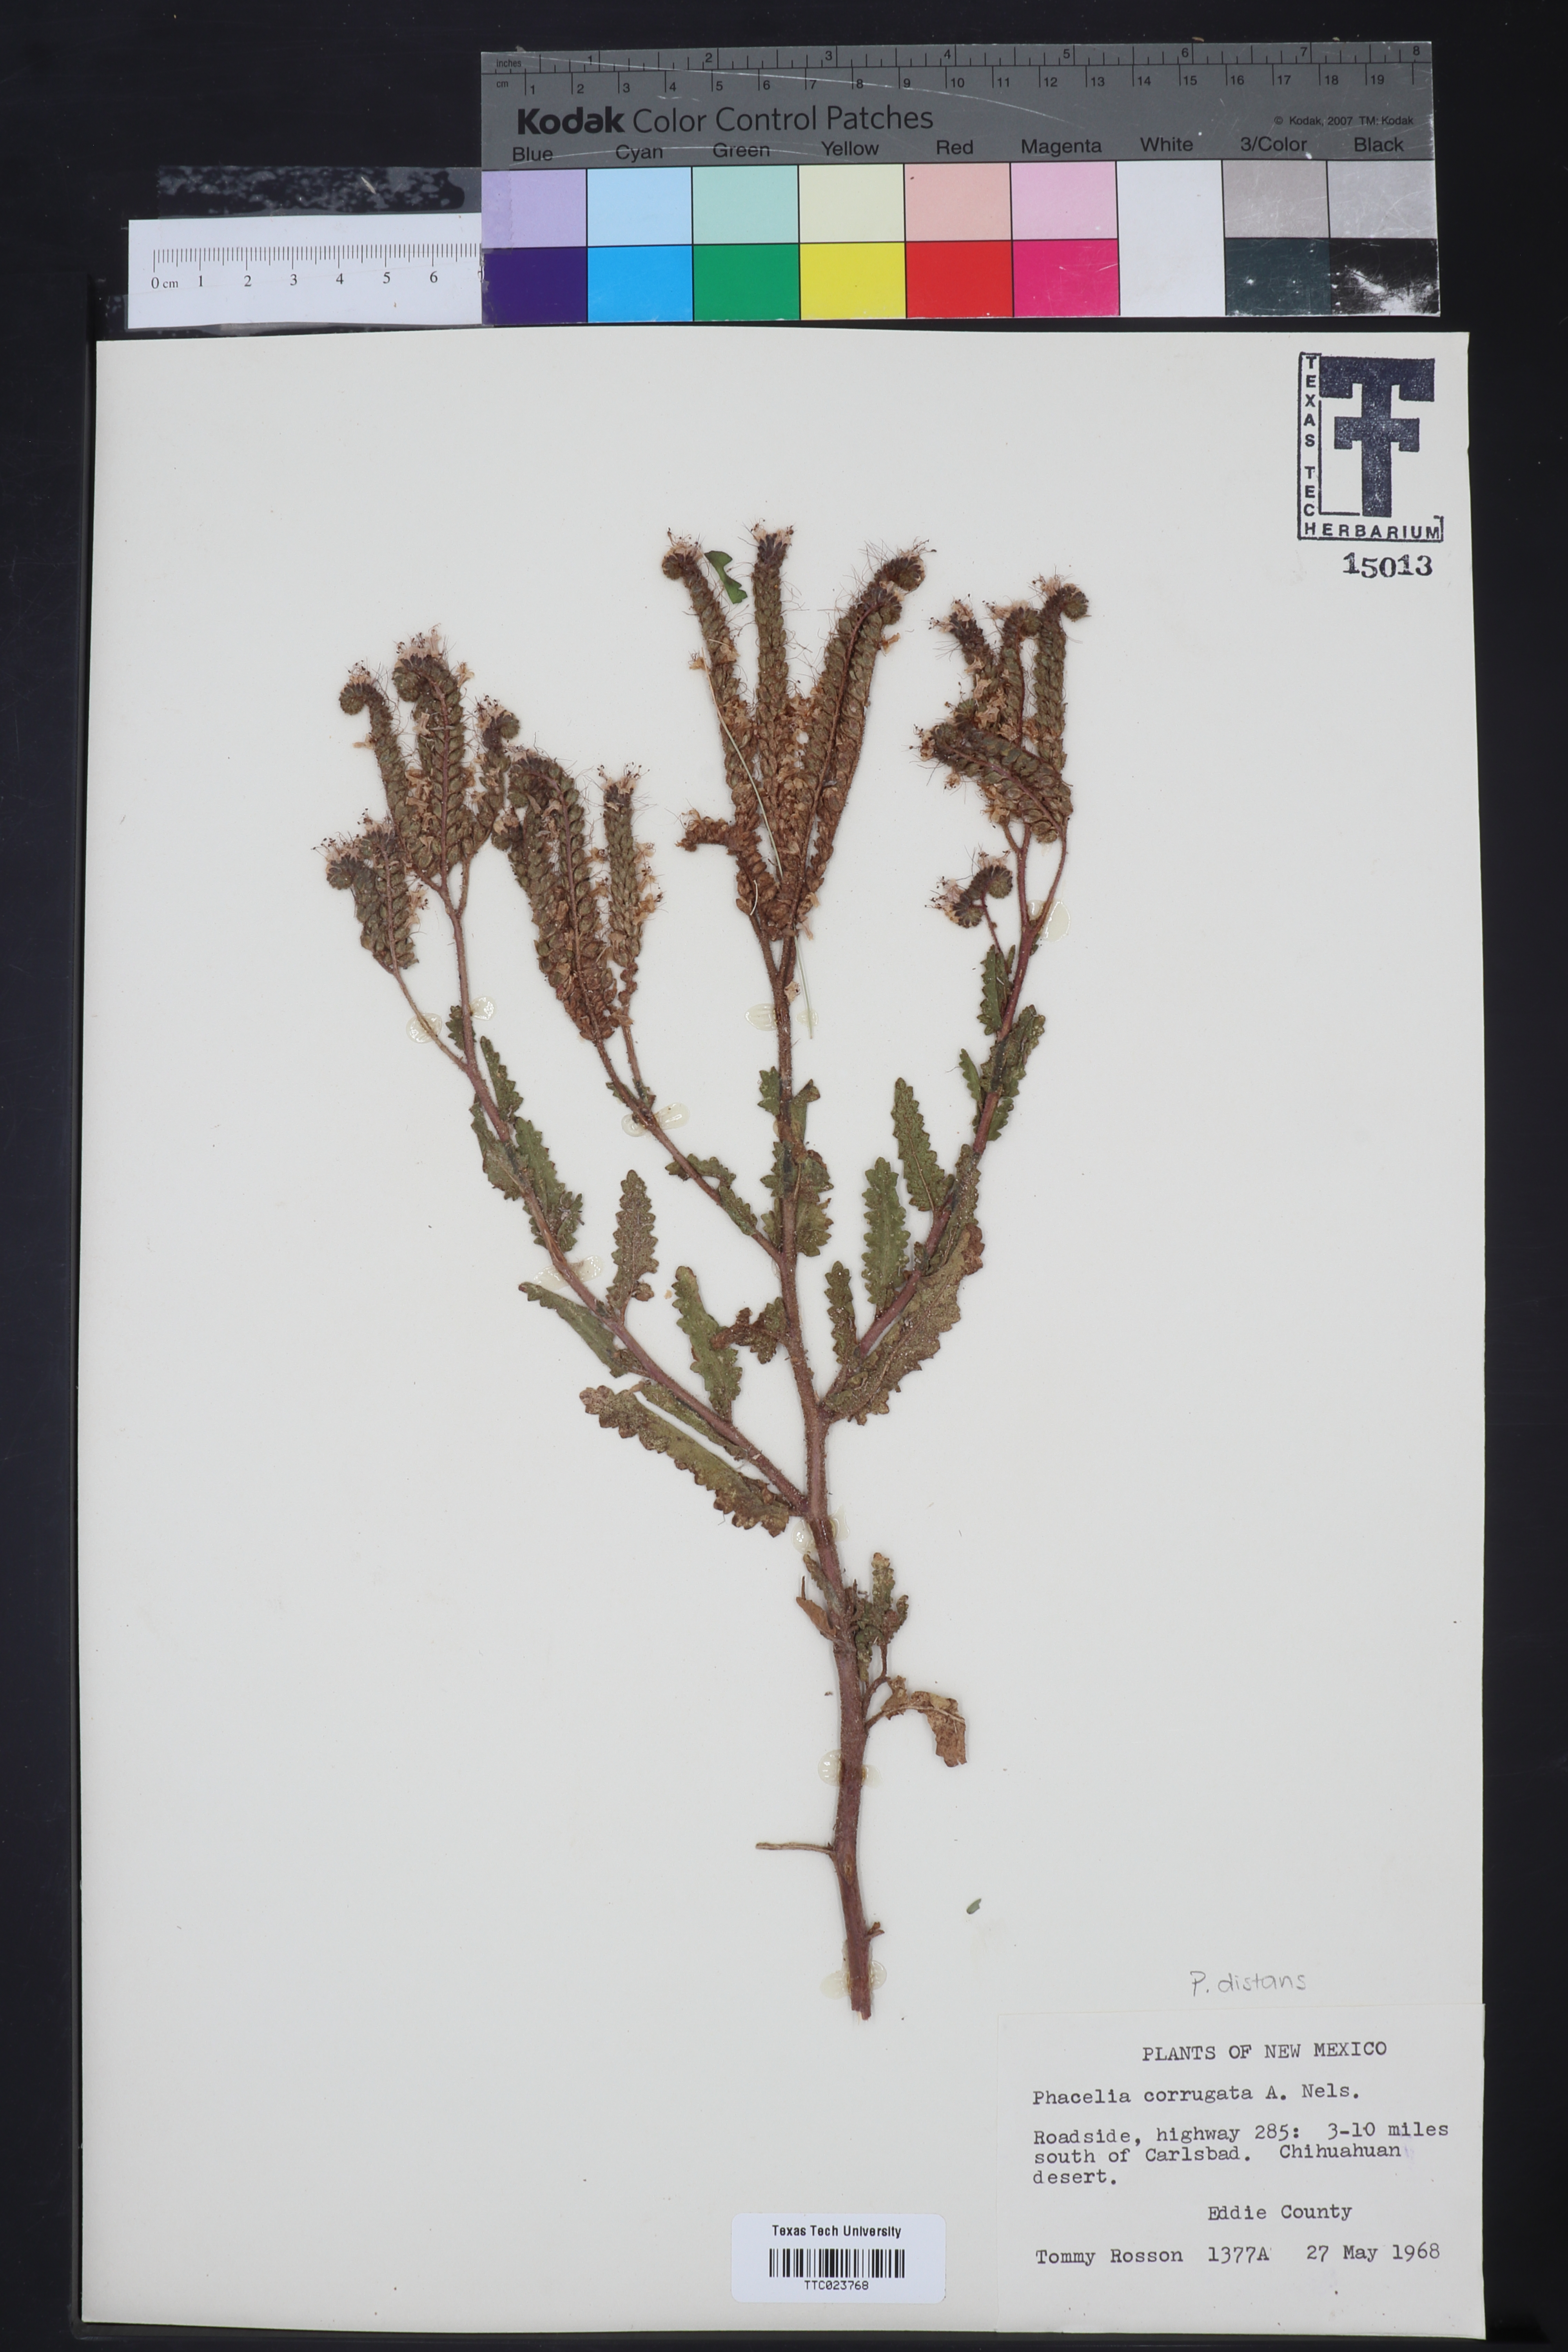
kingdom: Plantae
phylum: Tracheophyta
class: Magnoliopsida
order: Boraginales
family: Hydrophyllaceae
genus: Phacelia
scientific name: Phacelia distans
